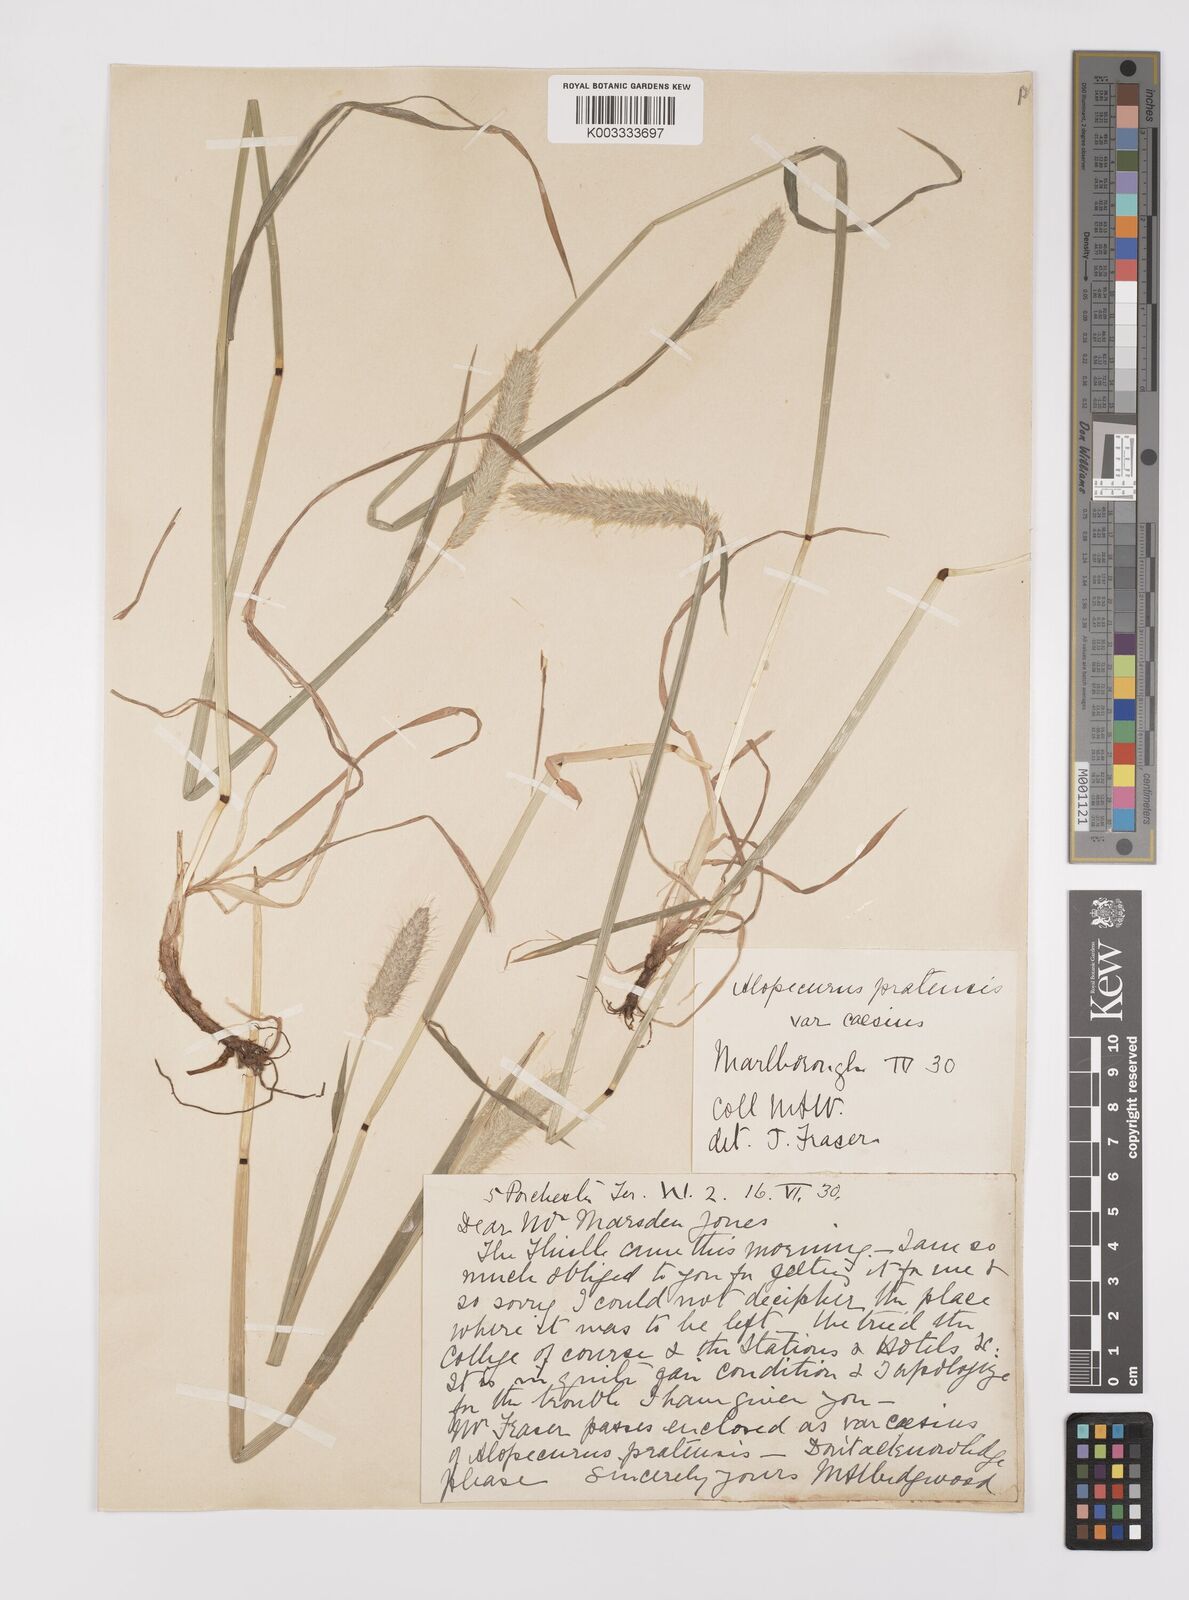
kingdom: Plantae
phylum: Tracheophyta
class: Liliopsida
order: Poales
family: Poaceae
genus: Alopecurus
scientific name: Alopecurus pratensis
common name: Meadow foxtail
